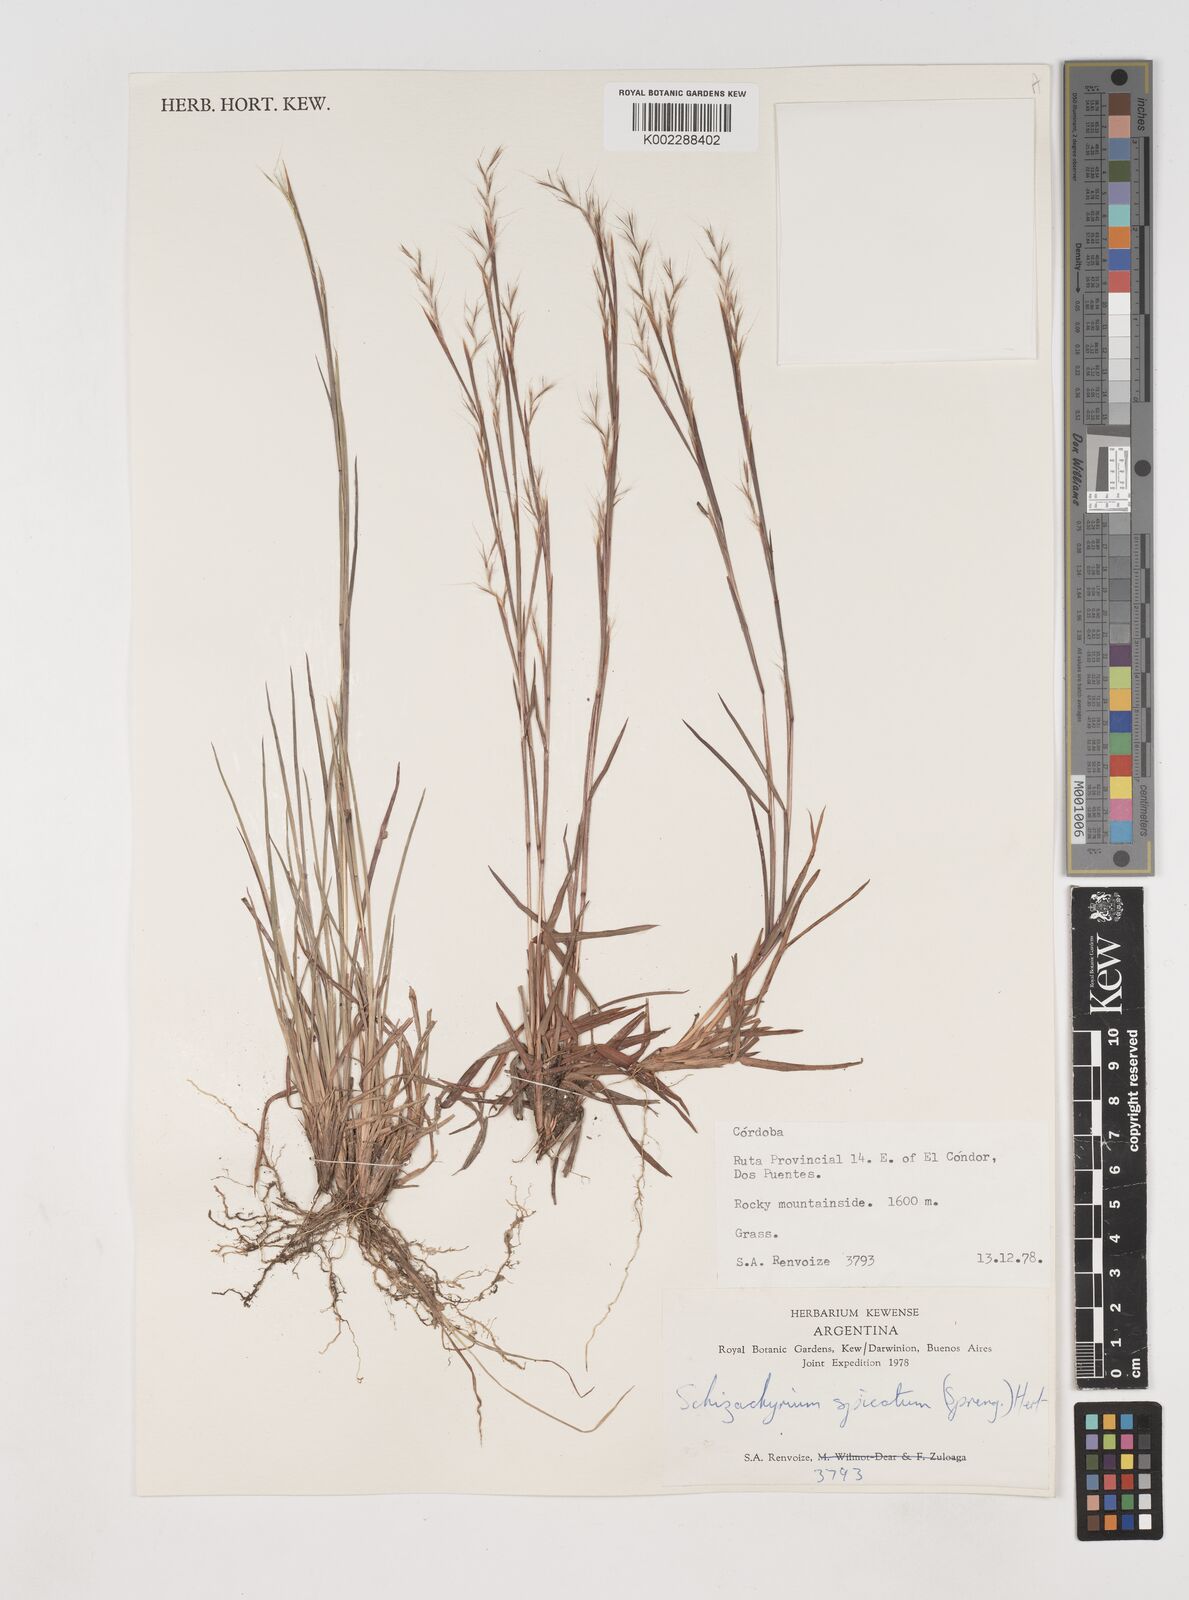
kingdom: Plantae
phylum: Tracheophyta
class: Liliopsida
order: Poales
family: Poaceae
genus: Schizachyrium
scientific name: Schizachyrium spicatum
